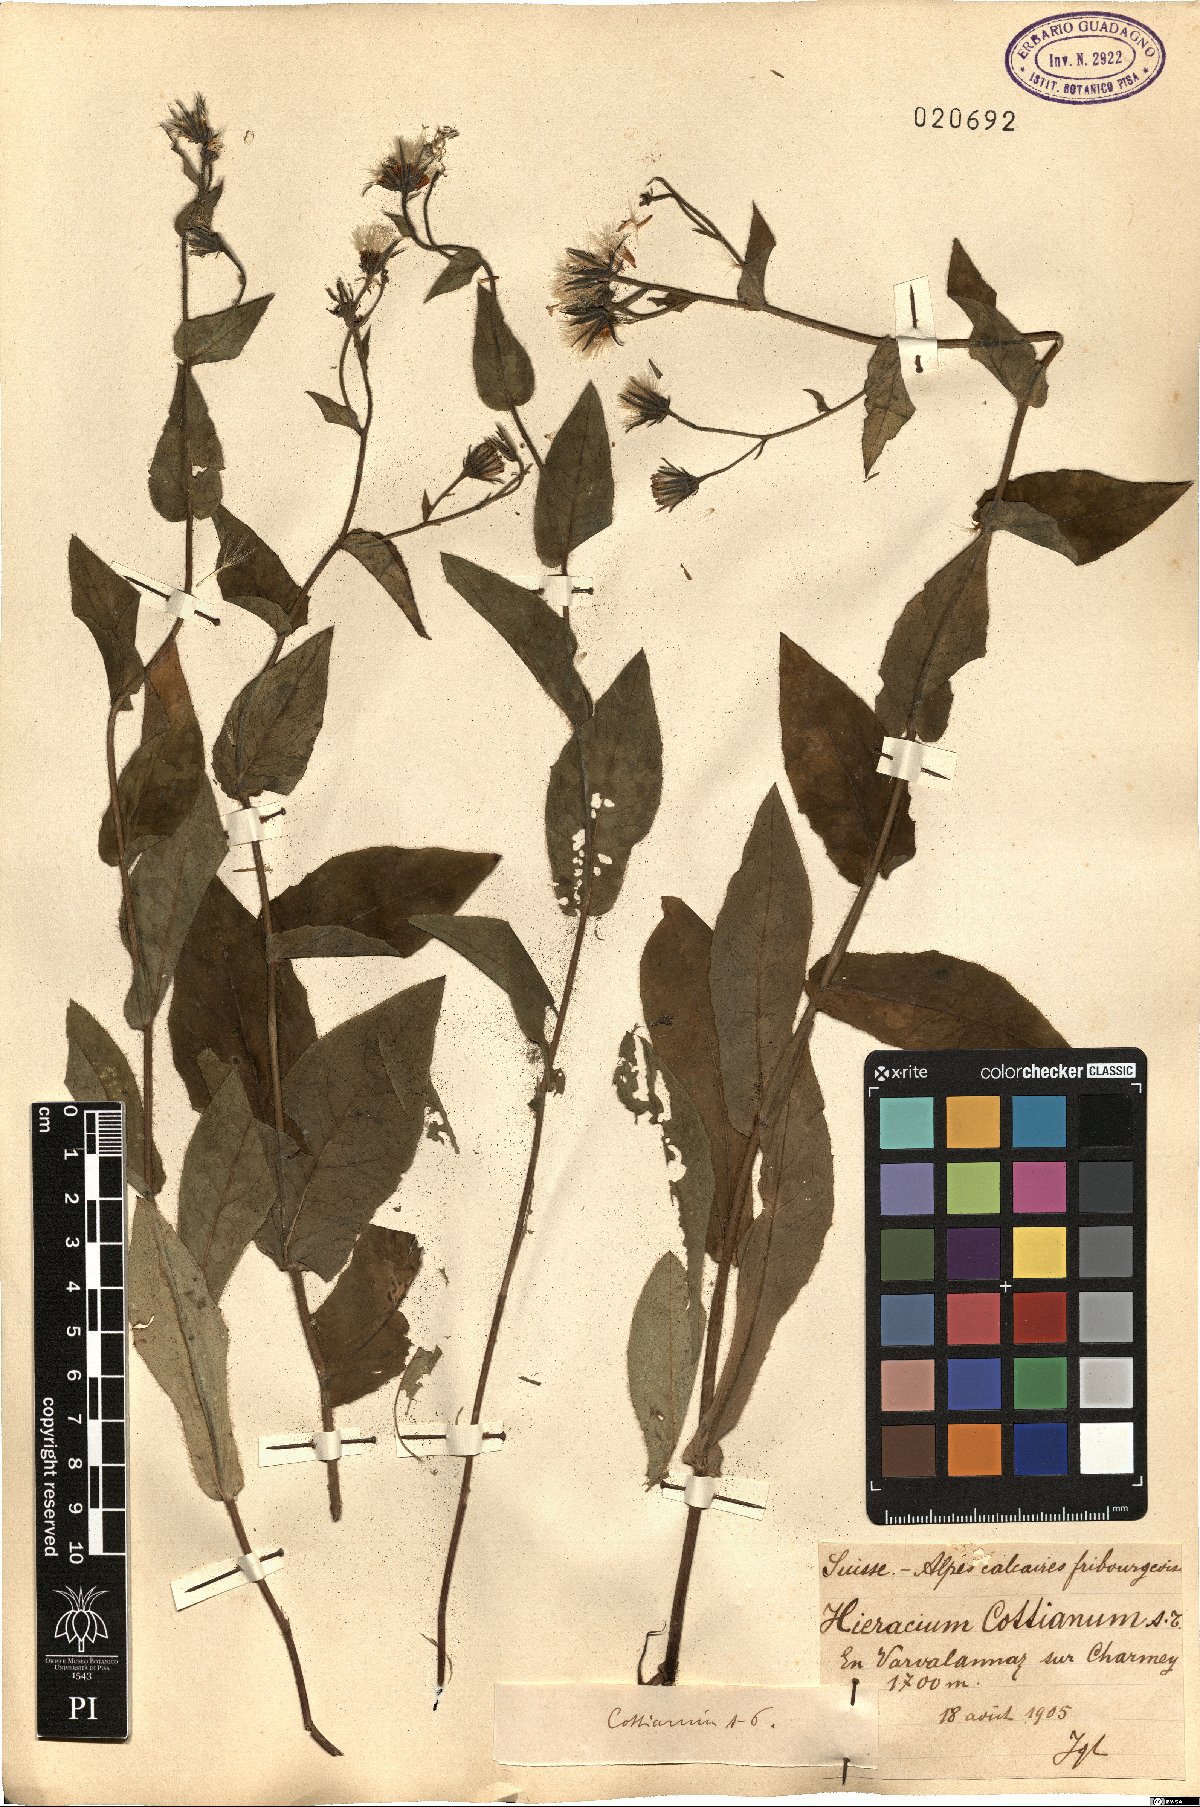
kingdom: Plantae
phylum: Tracheophyta
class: Magnoliopsida
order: Asterales
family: Asteraceae
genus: Hieracium
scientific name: Hieracium cydoniifolium
